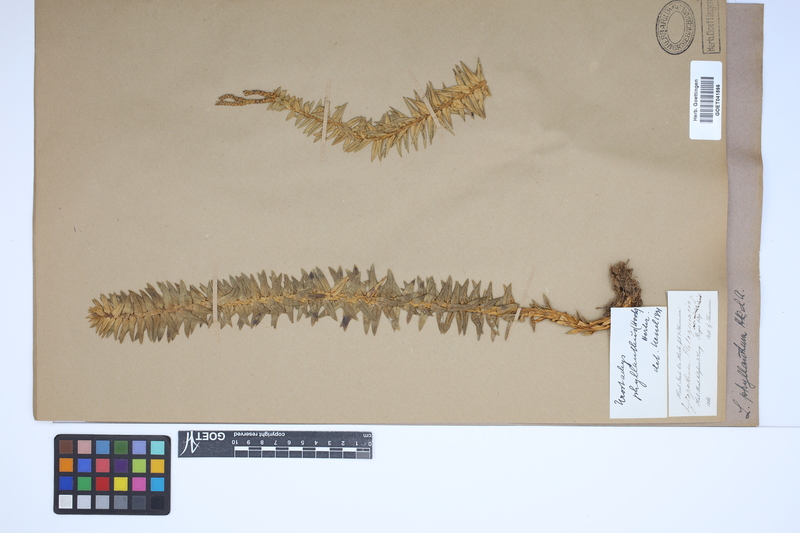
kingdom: Plantae
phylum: Tracheophyta
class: Lycopodiopsida
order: Lycopodiales
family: Lycopodiaceae
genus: Phlegmariurus
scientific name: Phlegmariurus phyllanthus
